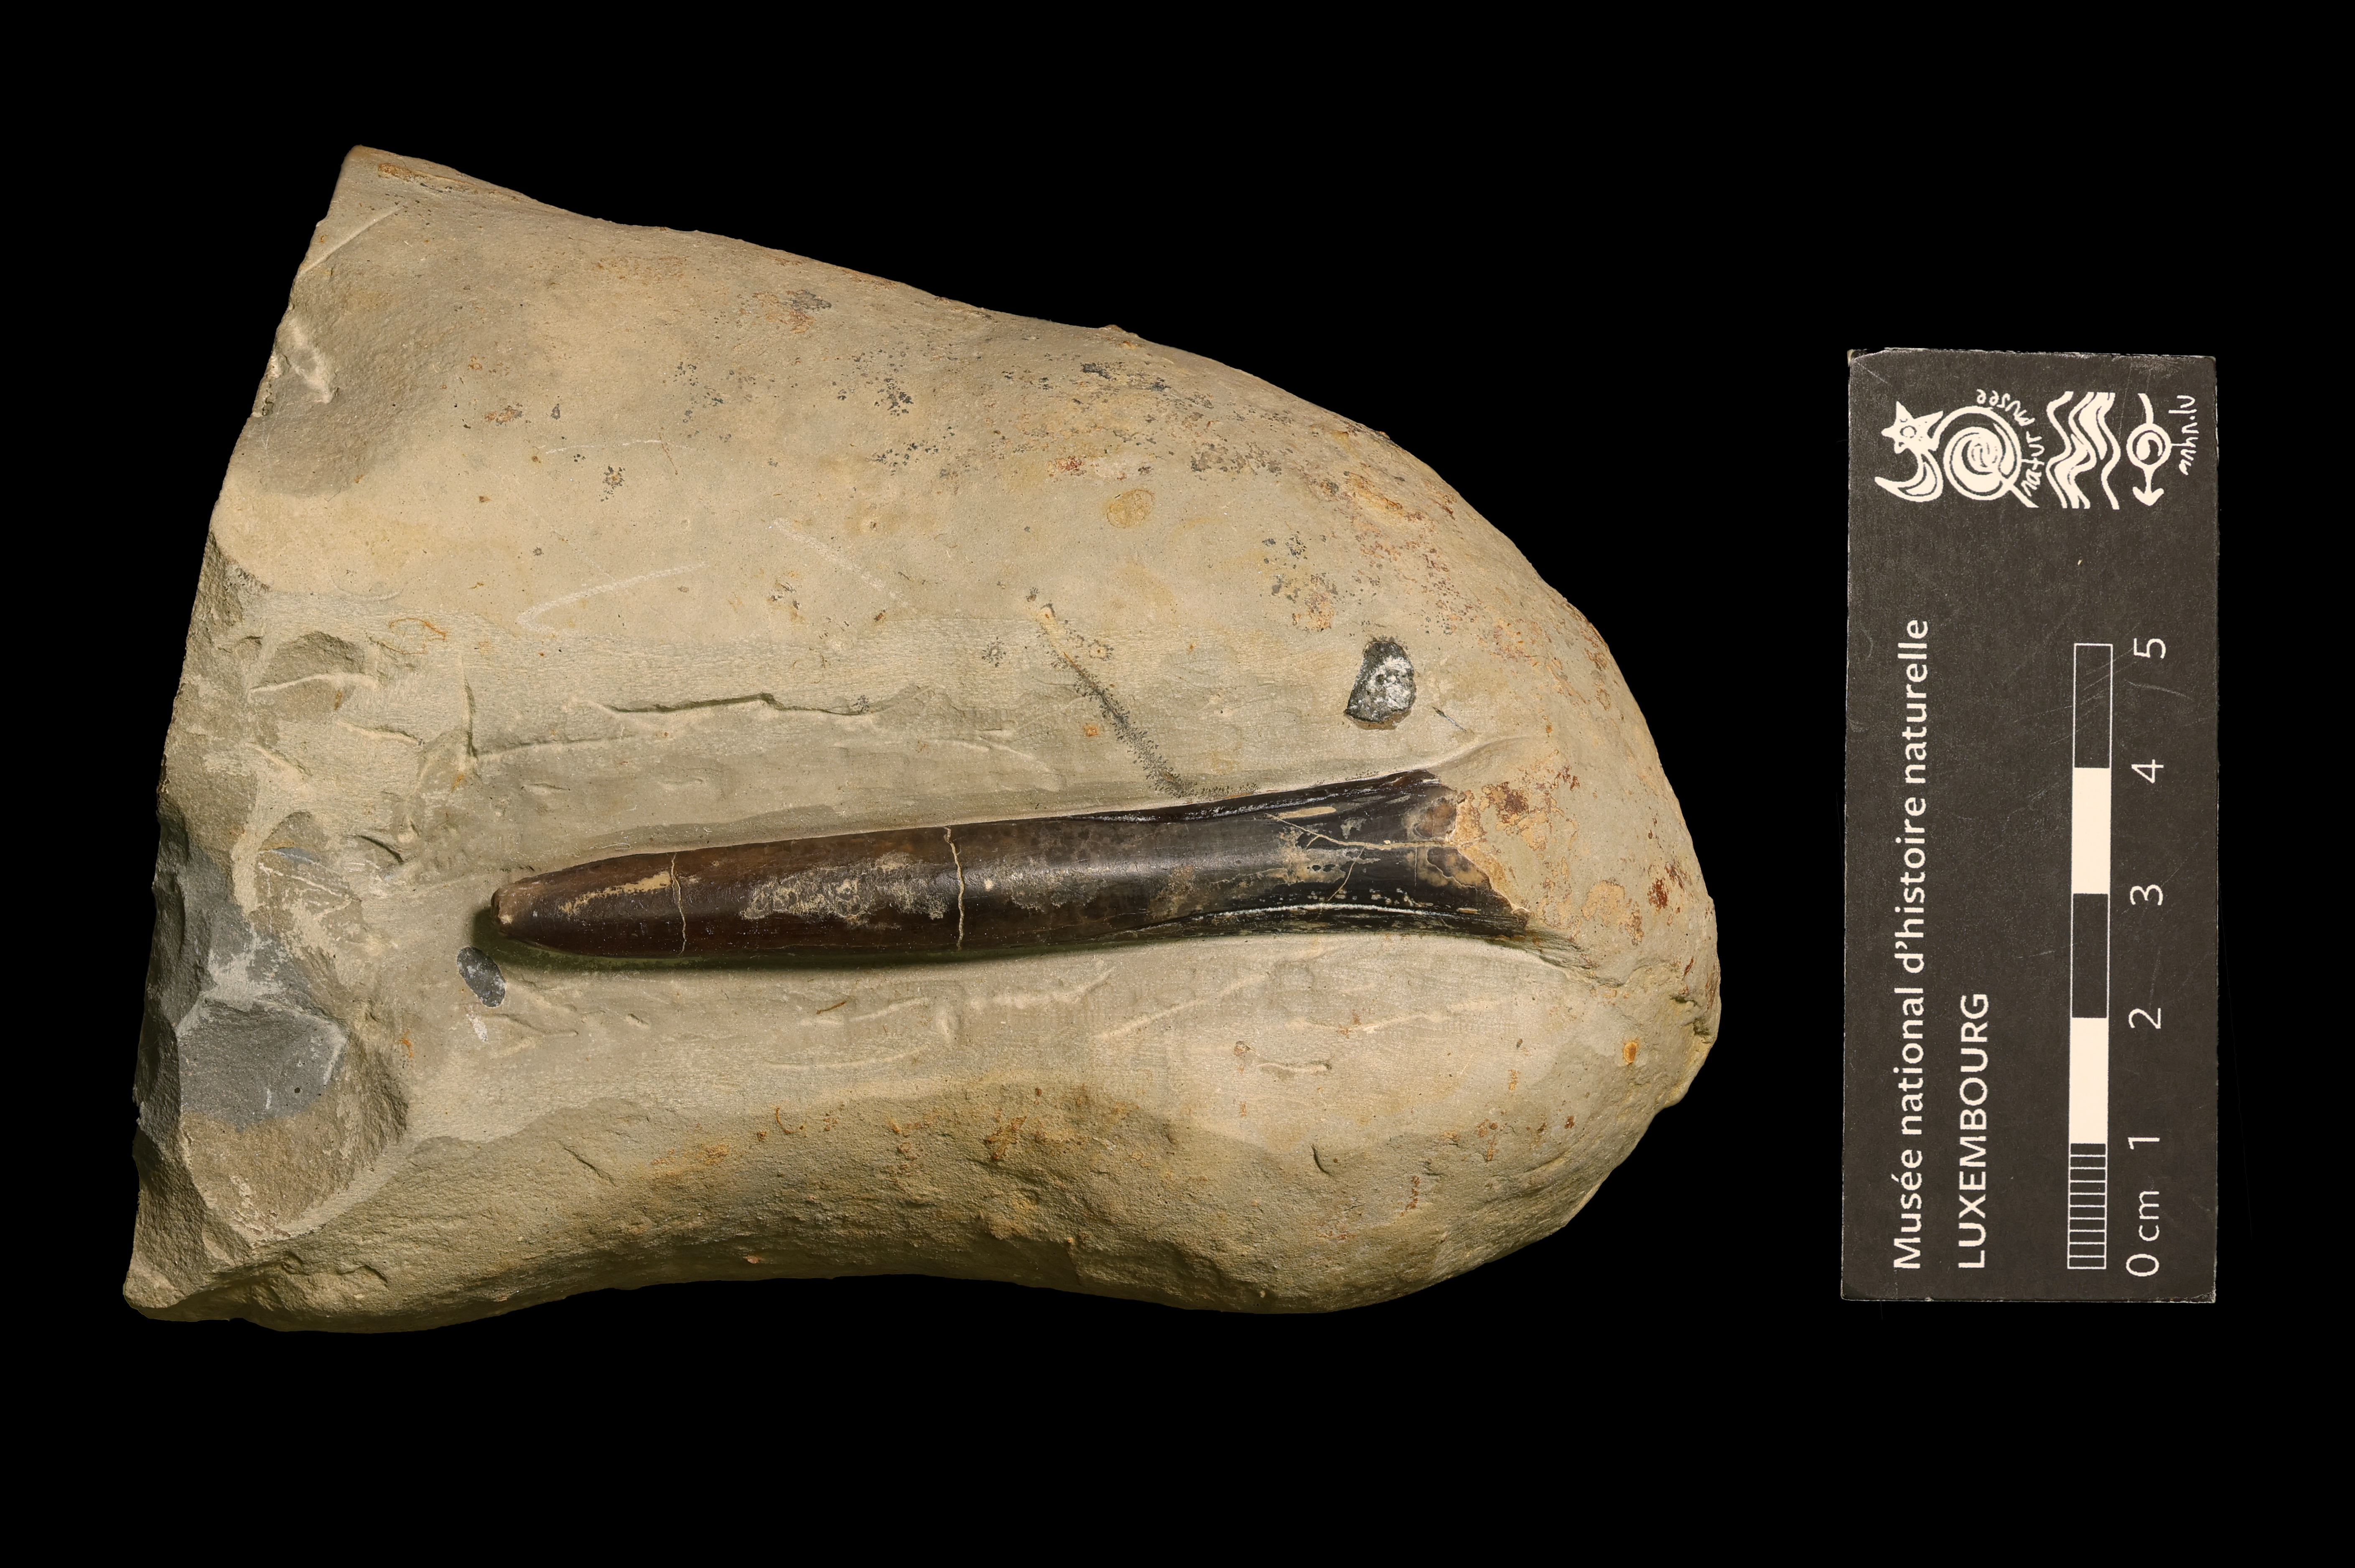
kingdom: Animalia
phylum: Mollusca
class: Cephalopoda
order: Belemnitida
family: Passaloteuthidae
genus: Passaloteuthis
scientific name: Passaloteuthis milleri
